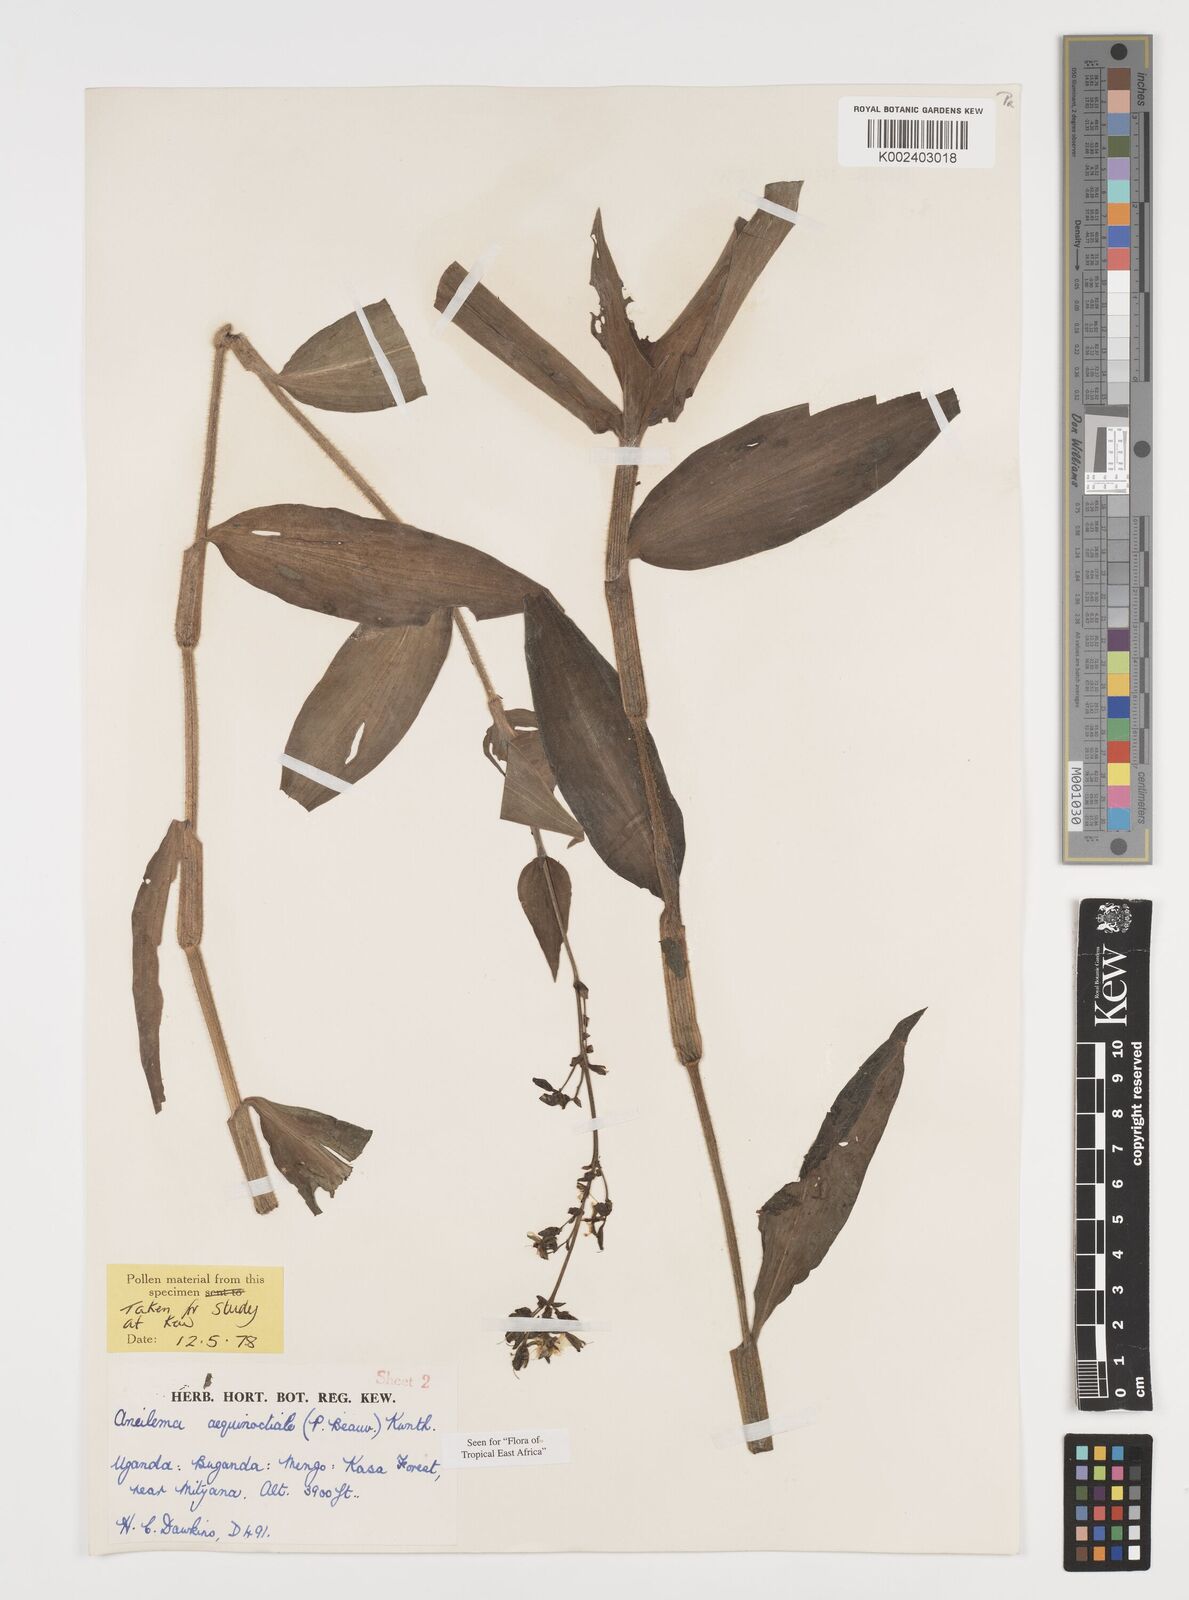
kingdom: Plantae
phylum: Tracheophyta
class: Liliopsida
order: Commelinales
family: Commelinaceae
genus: Aneilema
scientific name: Aneilema aequinoctiale
